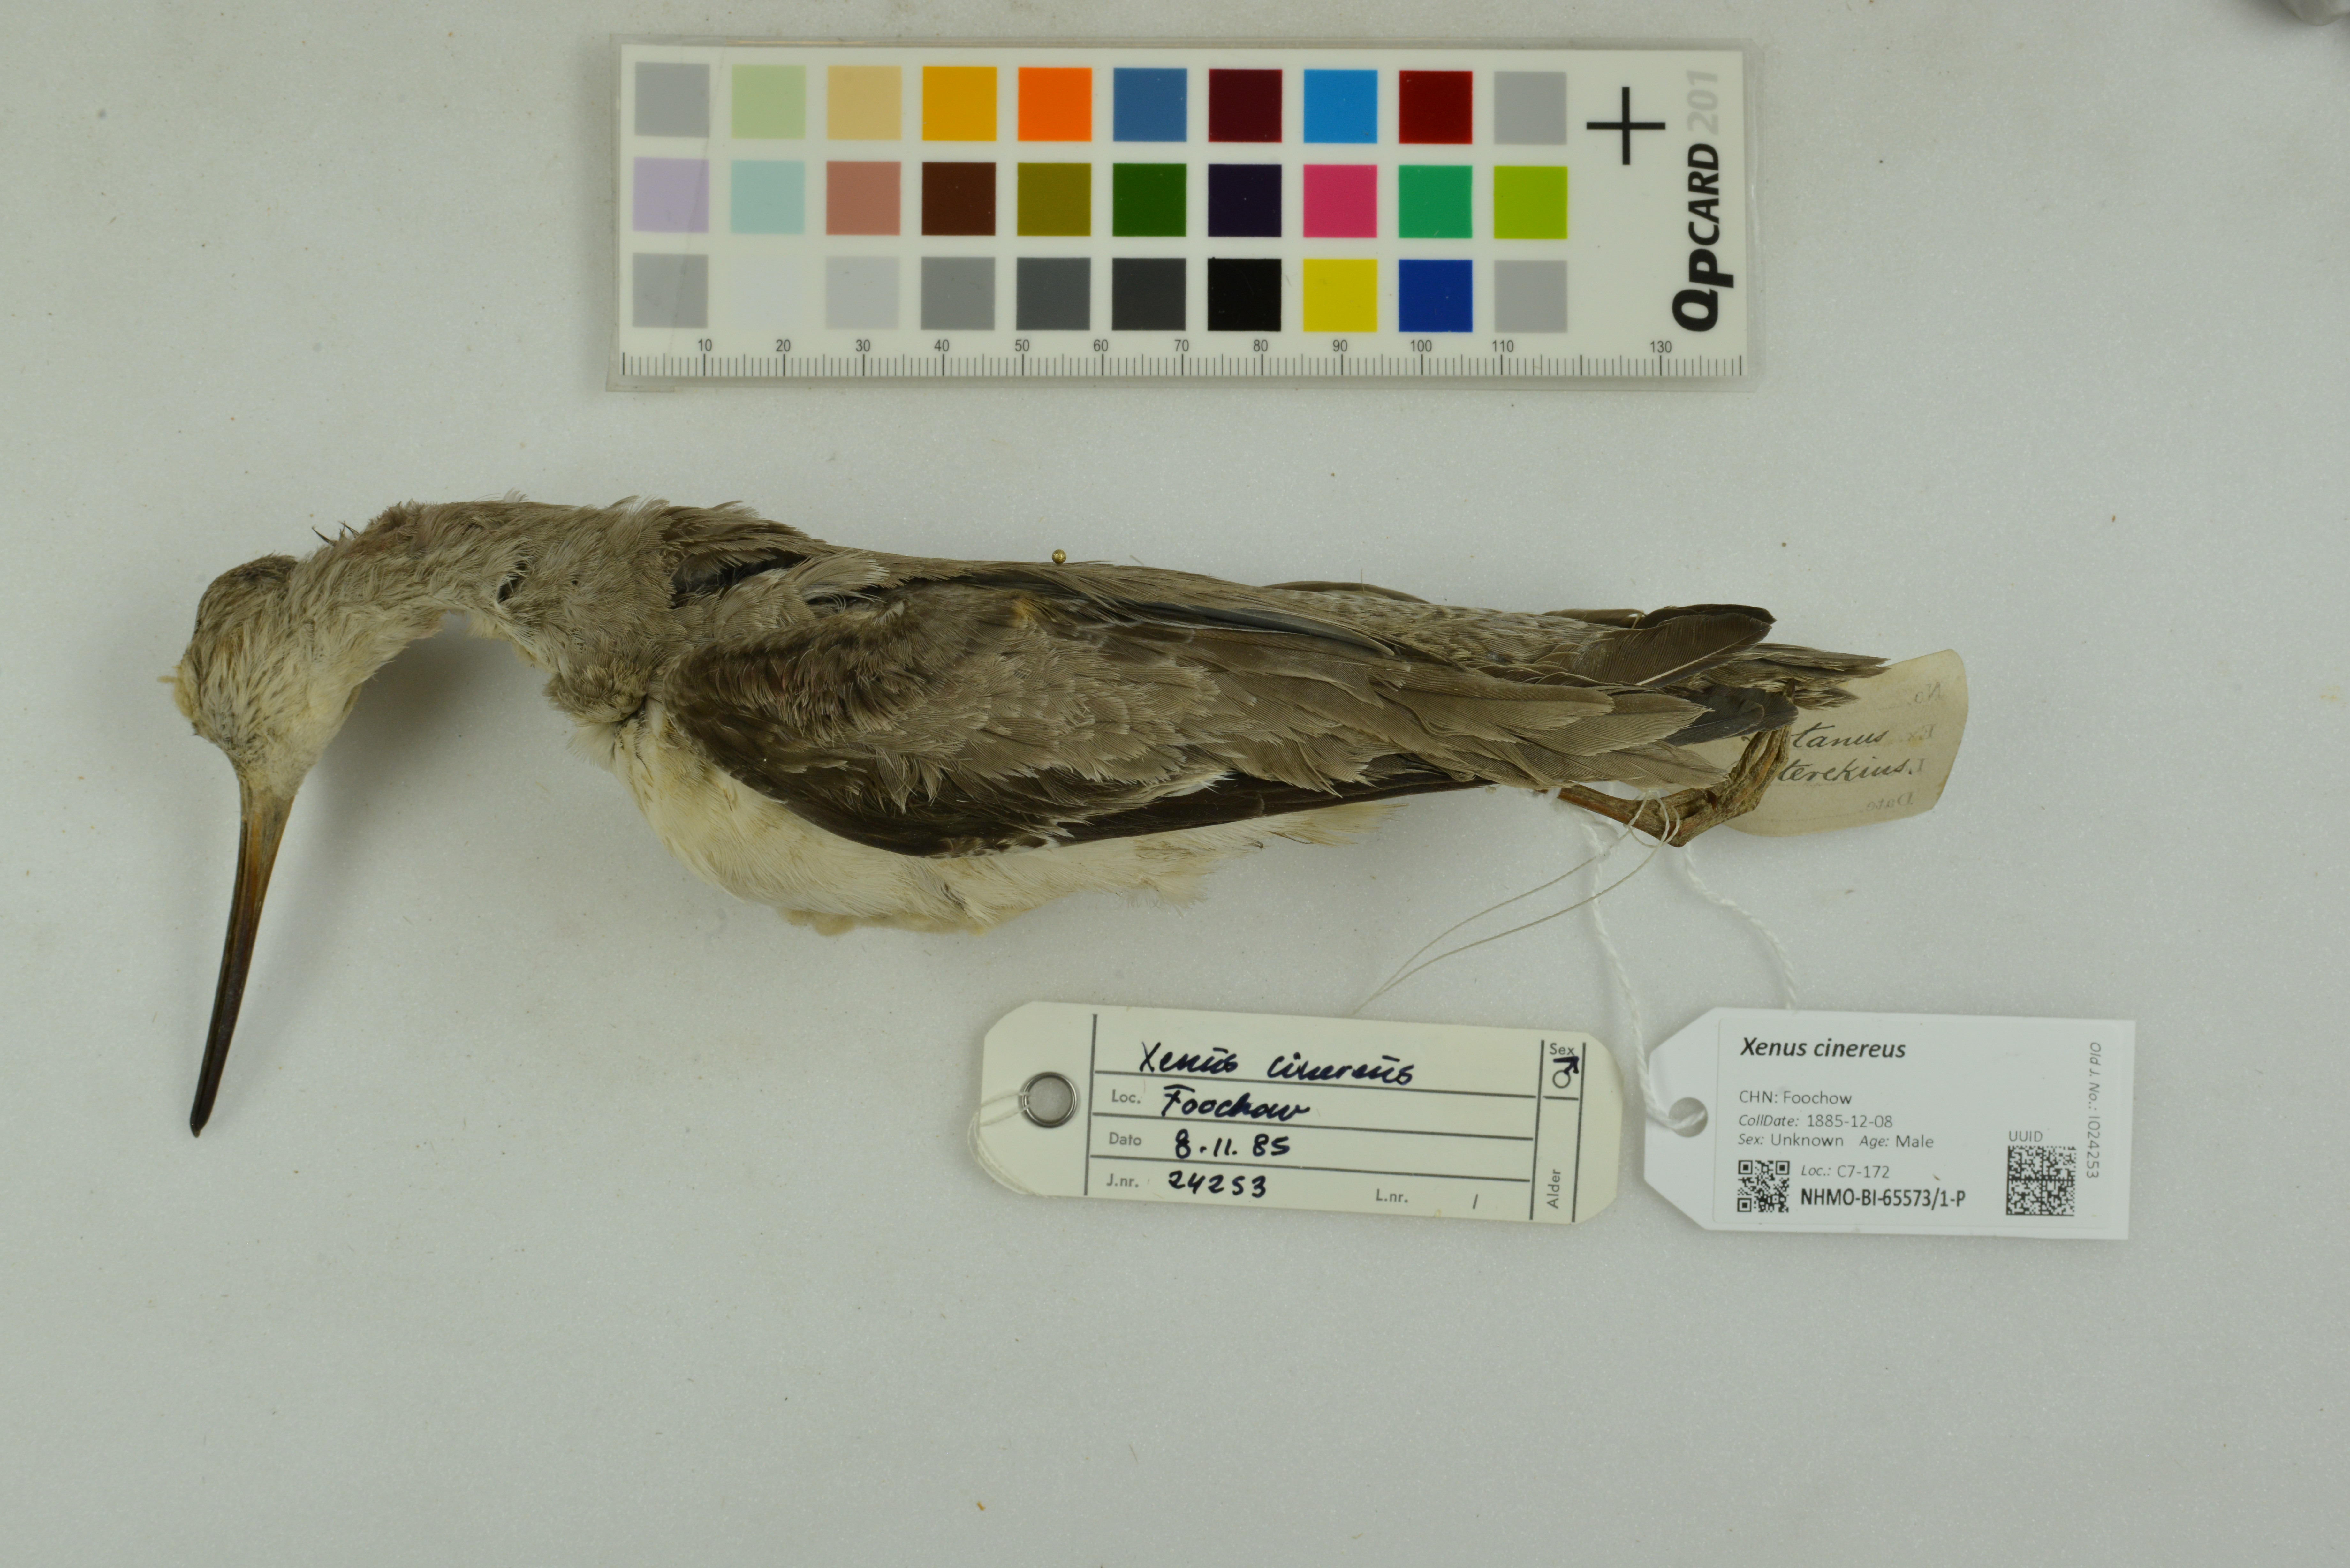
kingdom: Animalia
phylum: Chordata
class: Aves
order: Charadriiformes
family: Scolopacidae
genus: Xenus
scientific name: Xenus cinereus
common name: Terek sandpiper
